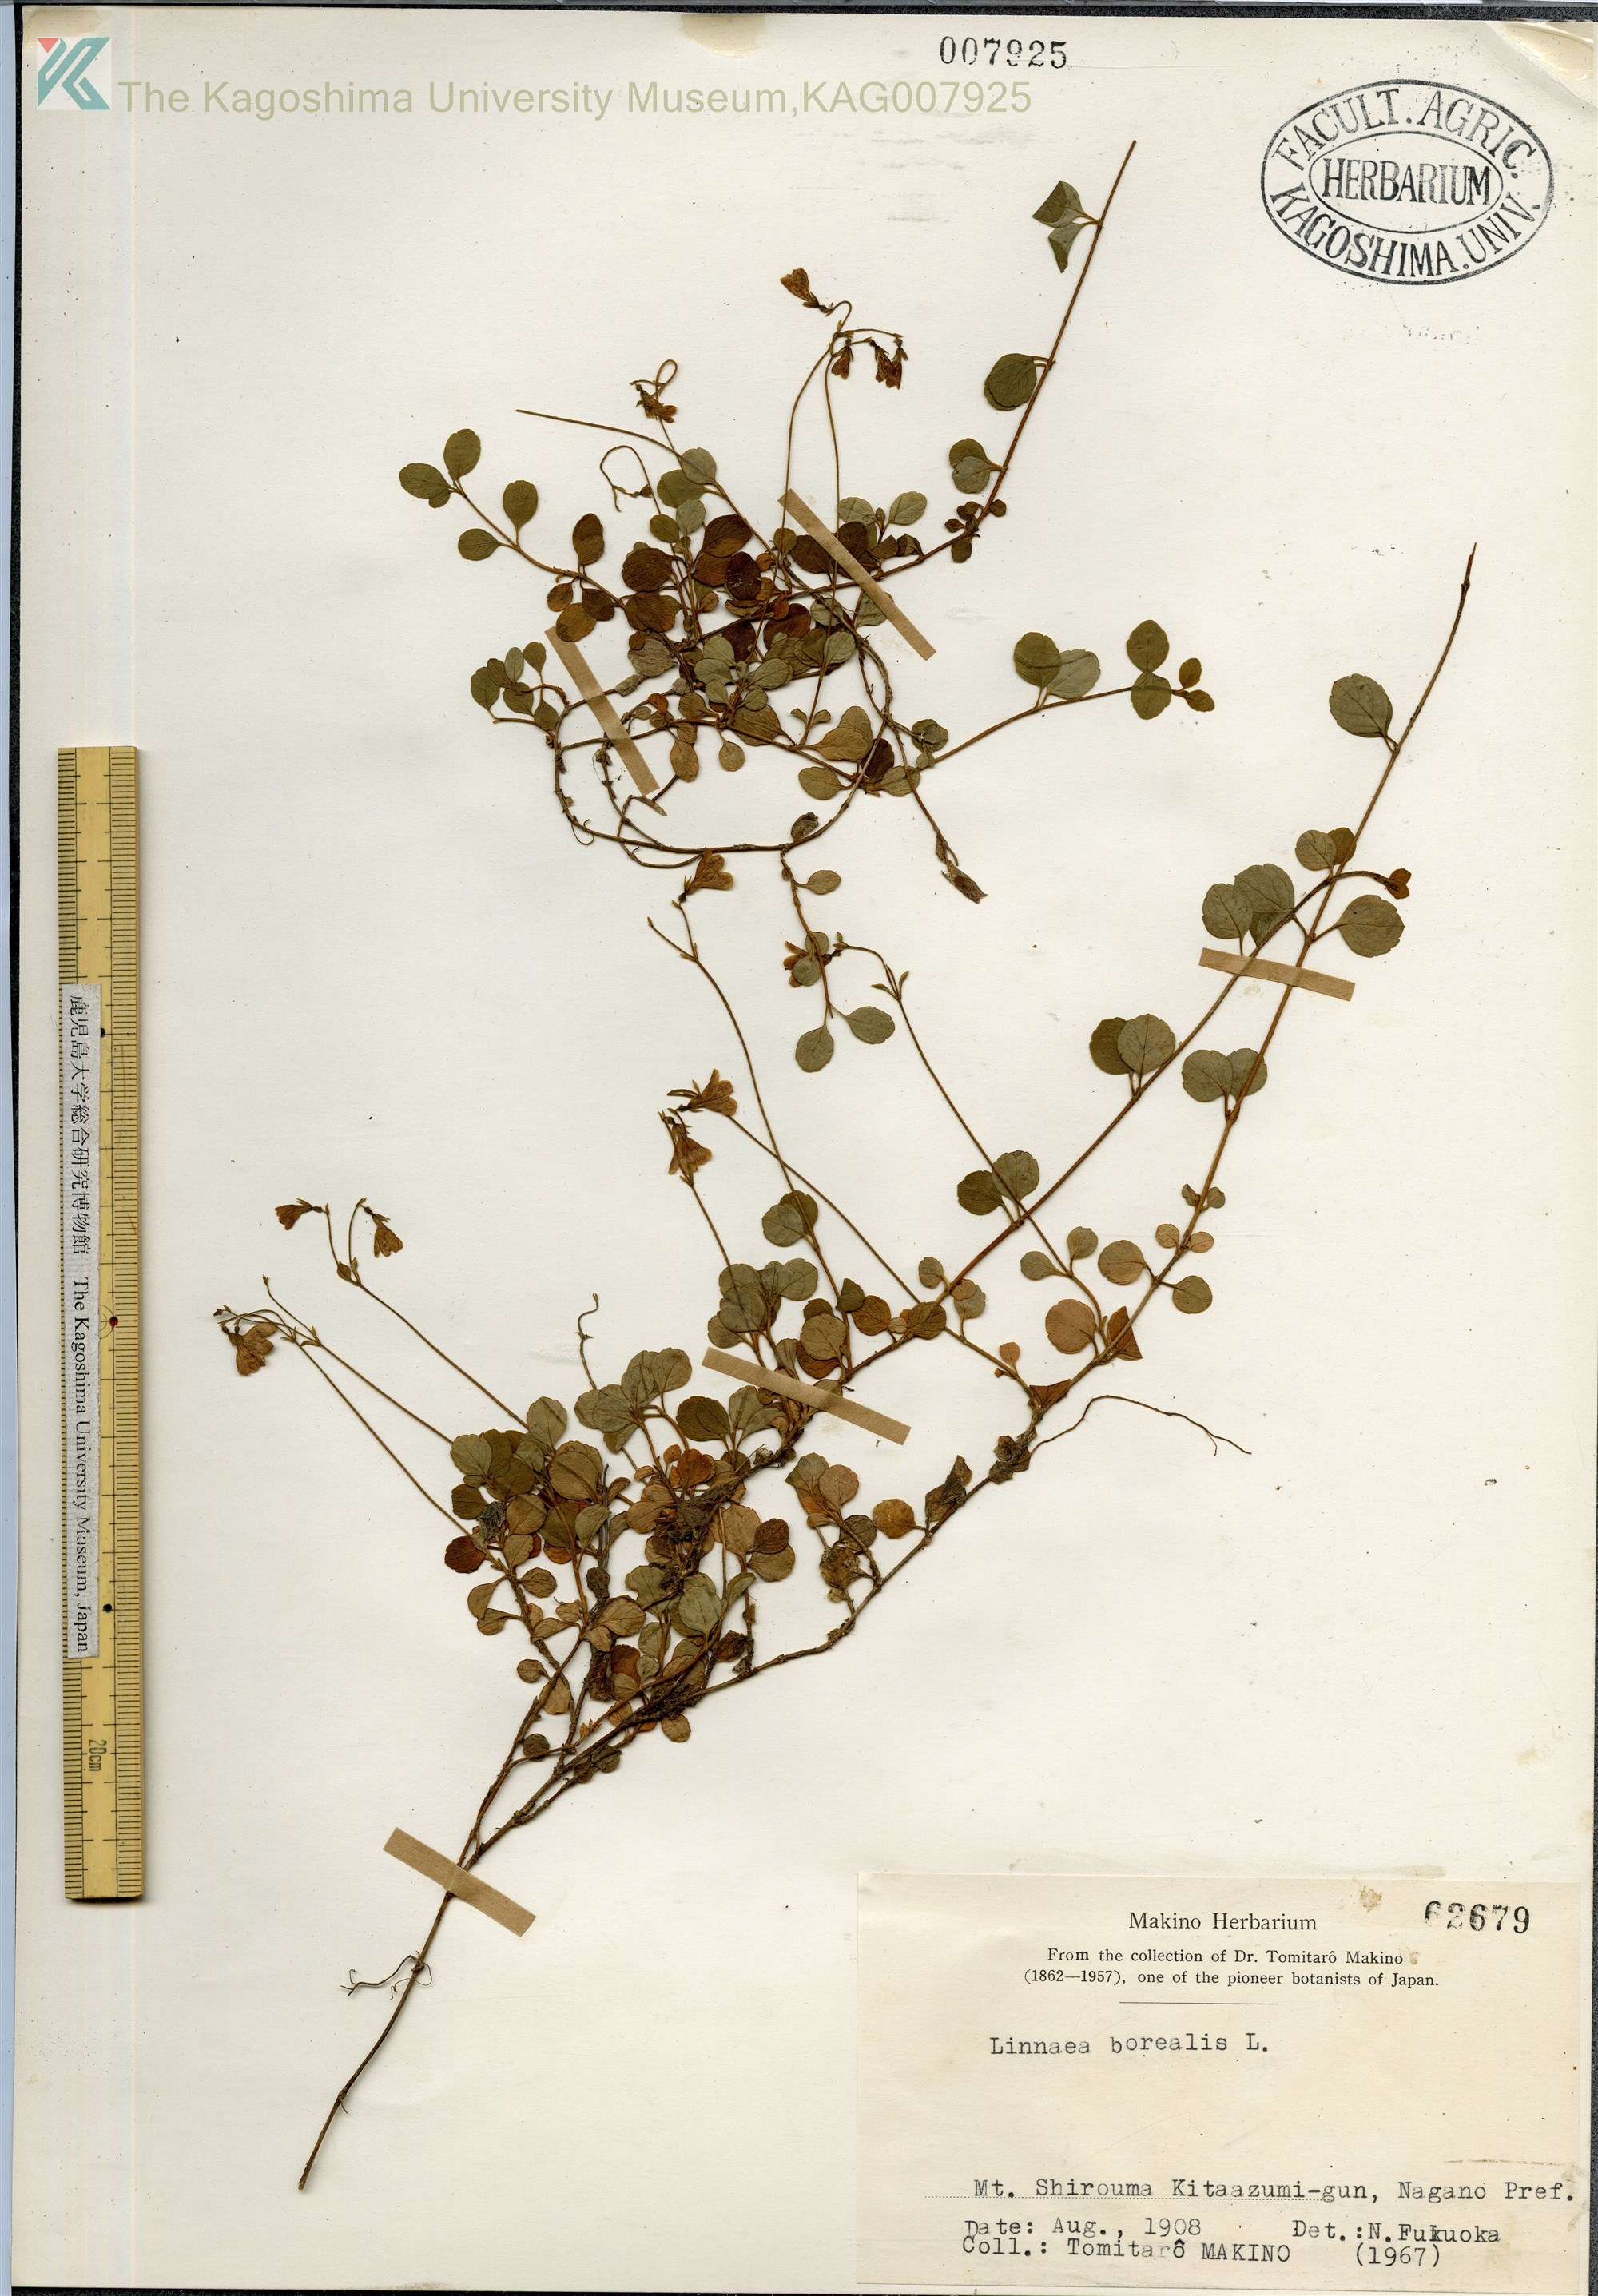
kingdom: Plantae
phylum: Tracheophyta
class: Magnoliopsida
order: Dipsacales
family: Caprifoliaceae
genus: Linnaea
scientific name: Linnaea borealis
